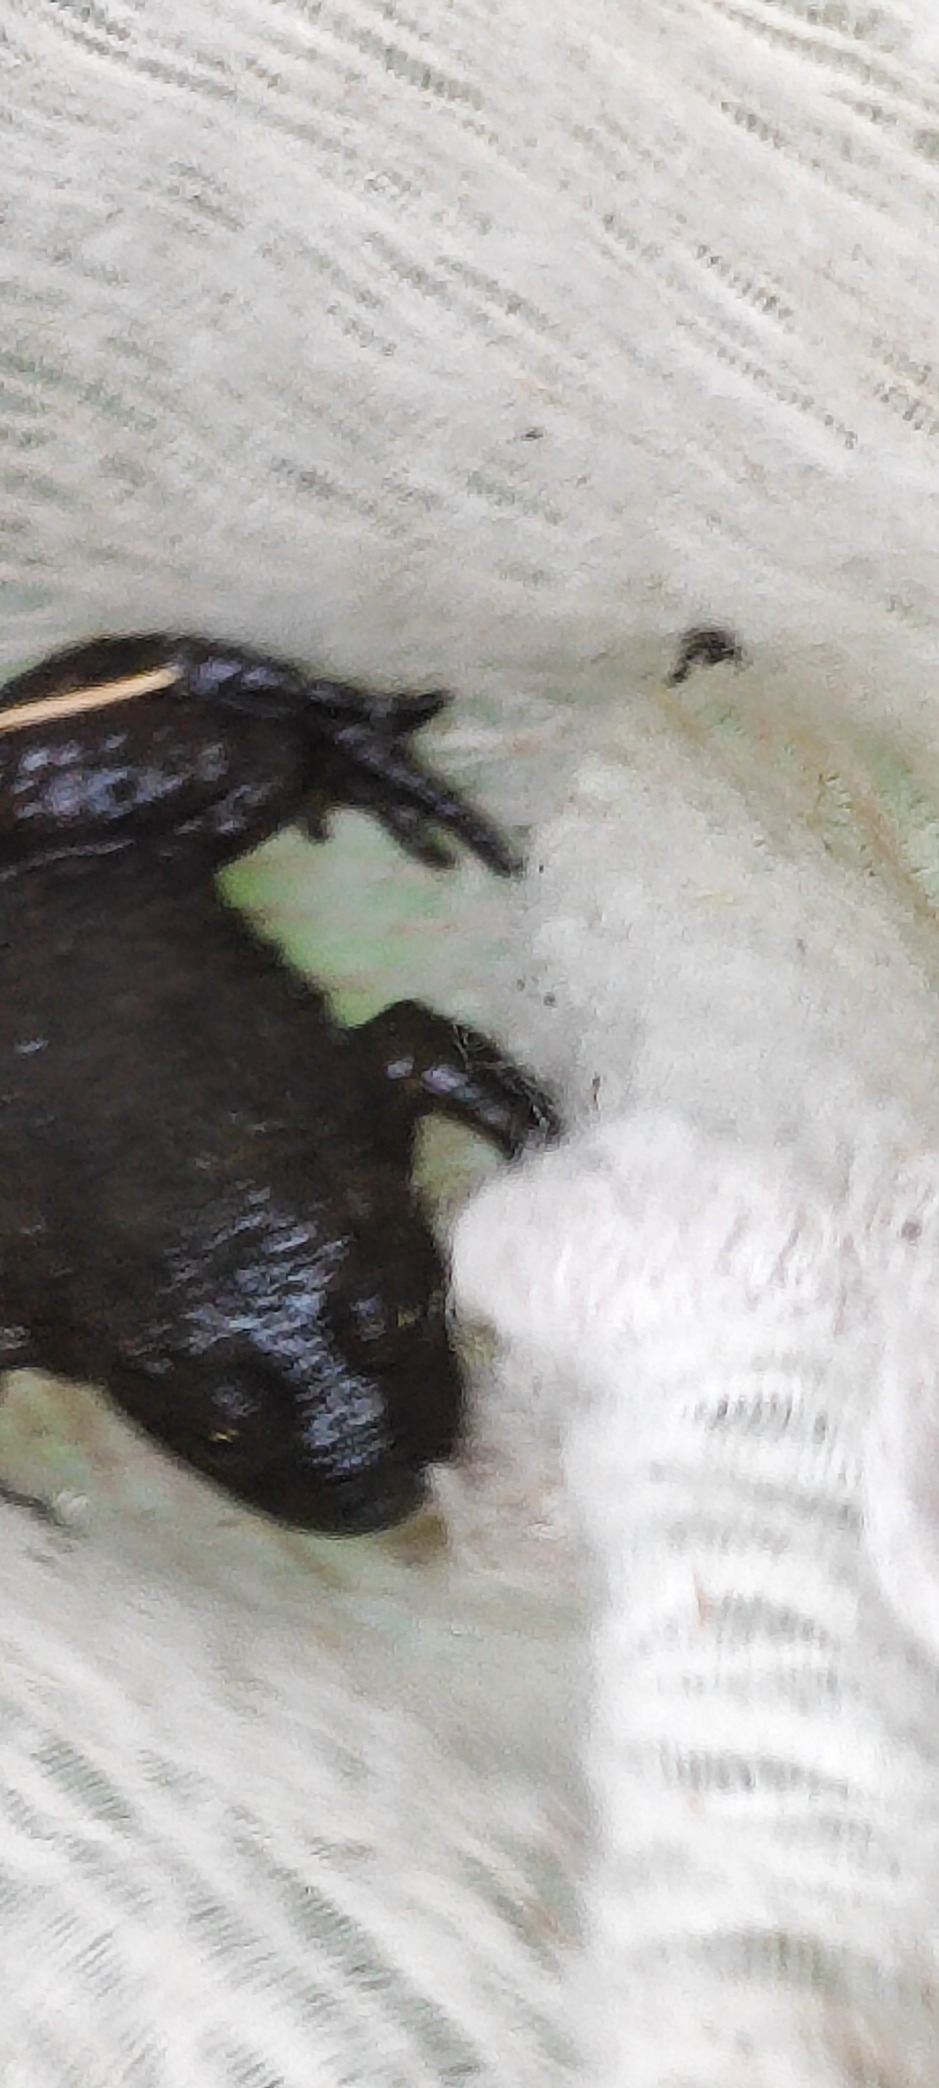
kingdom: Animalia
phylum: Chordata
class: Amphibia
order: Anura
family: Bombinatoridae
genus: Bombina
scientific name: Bombina bombina
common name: Klokkefrø
